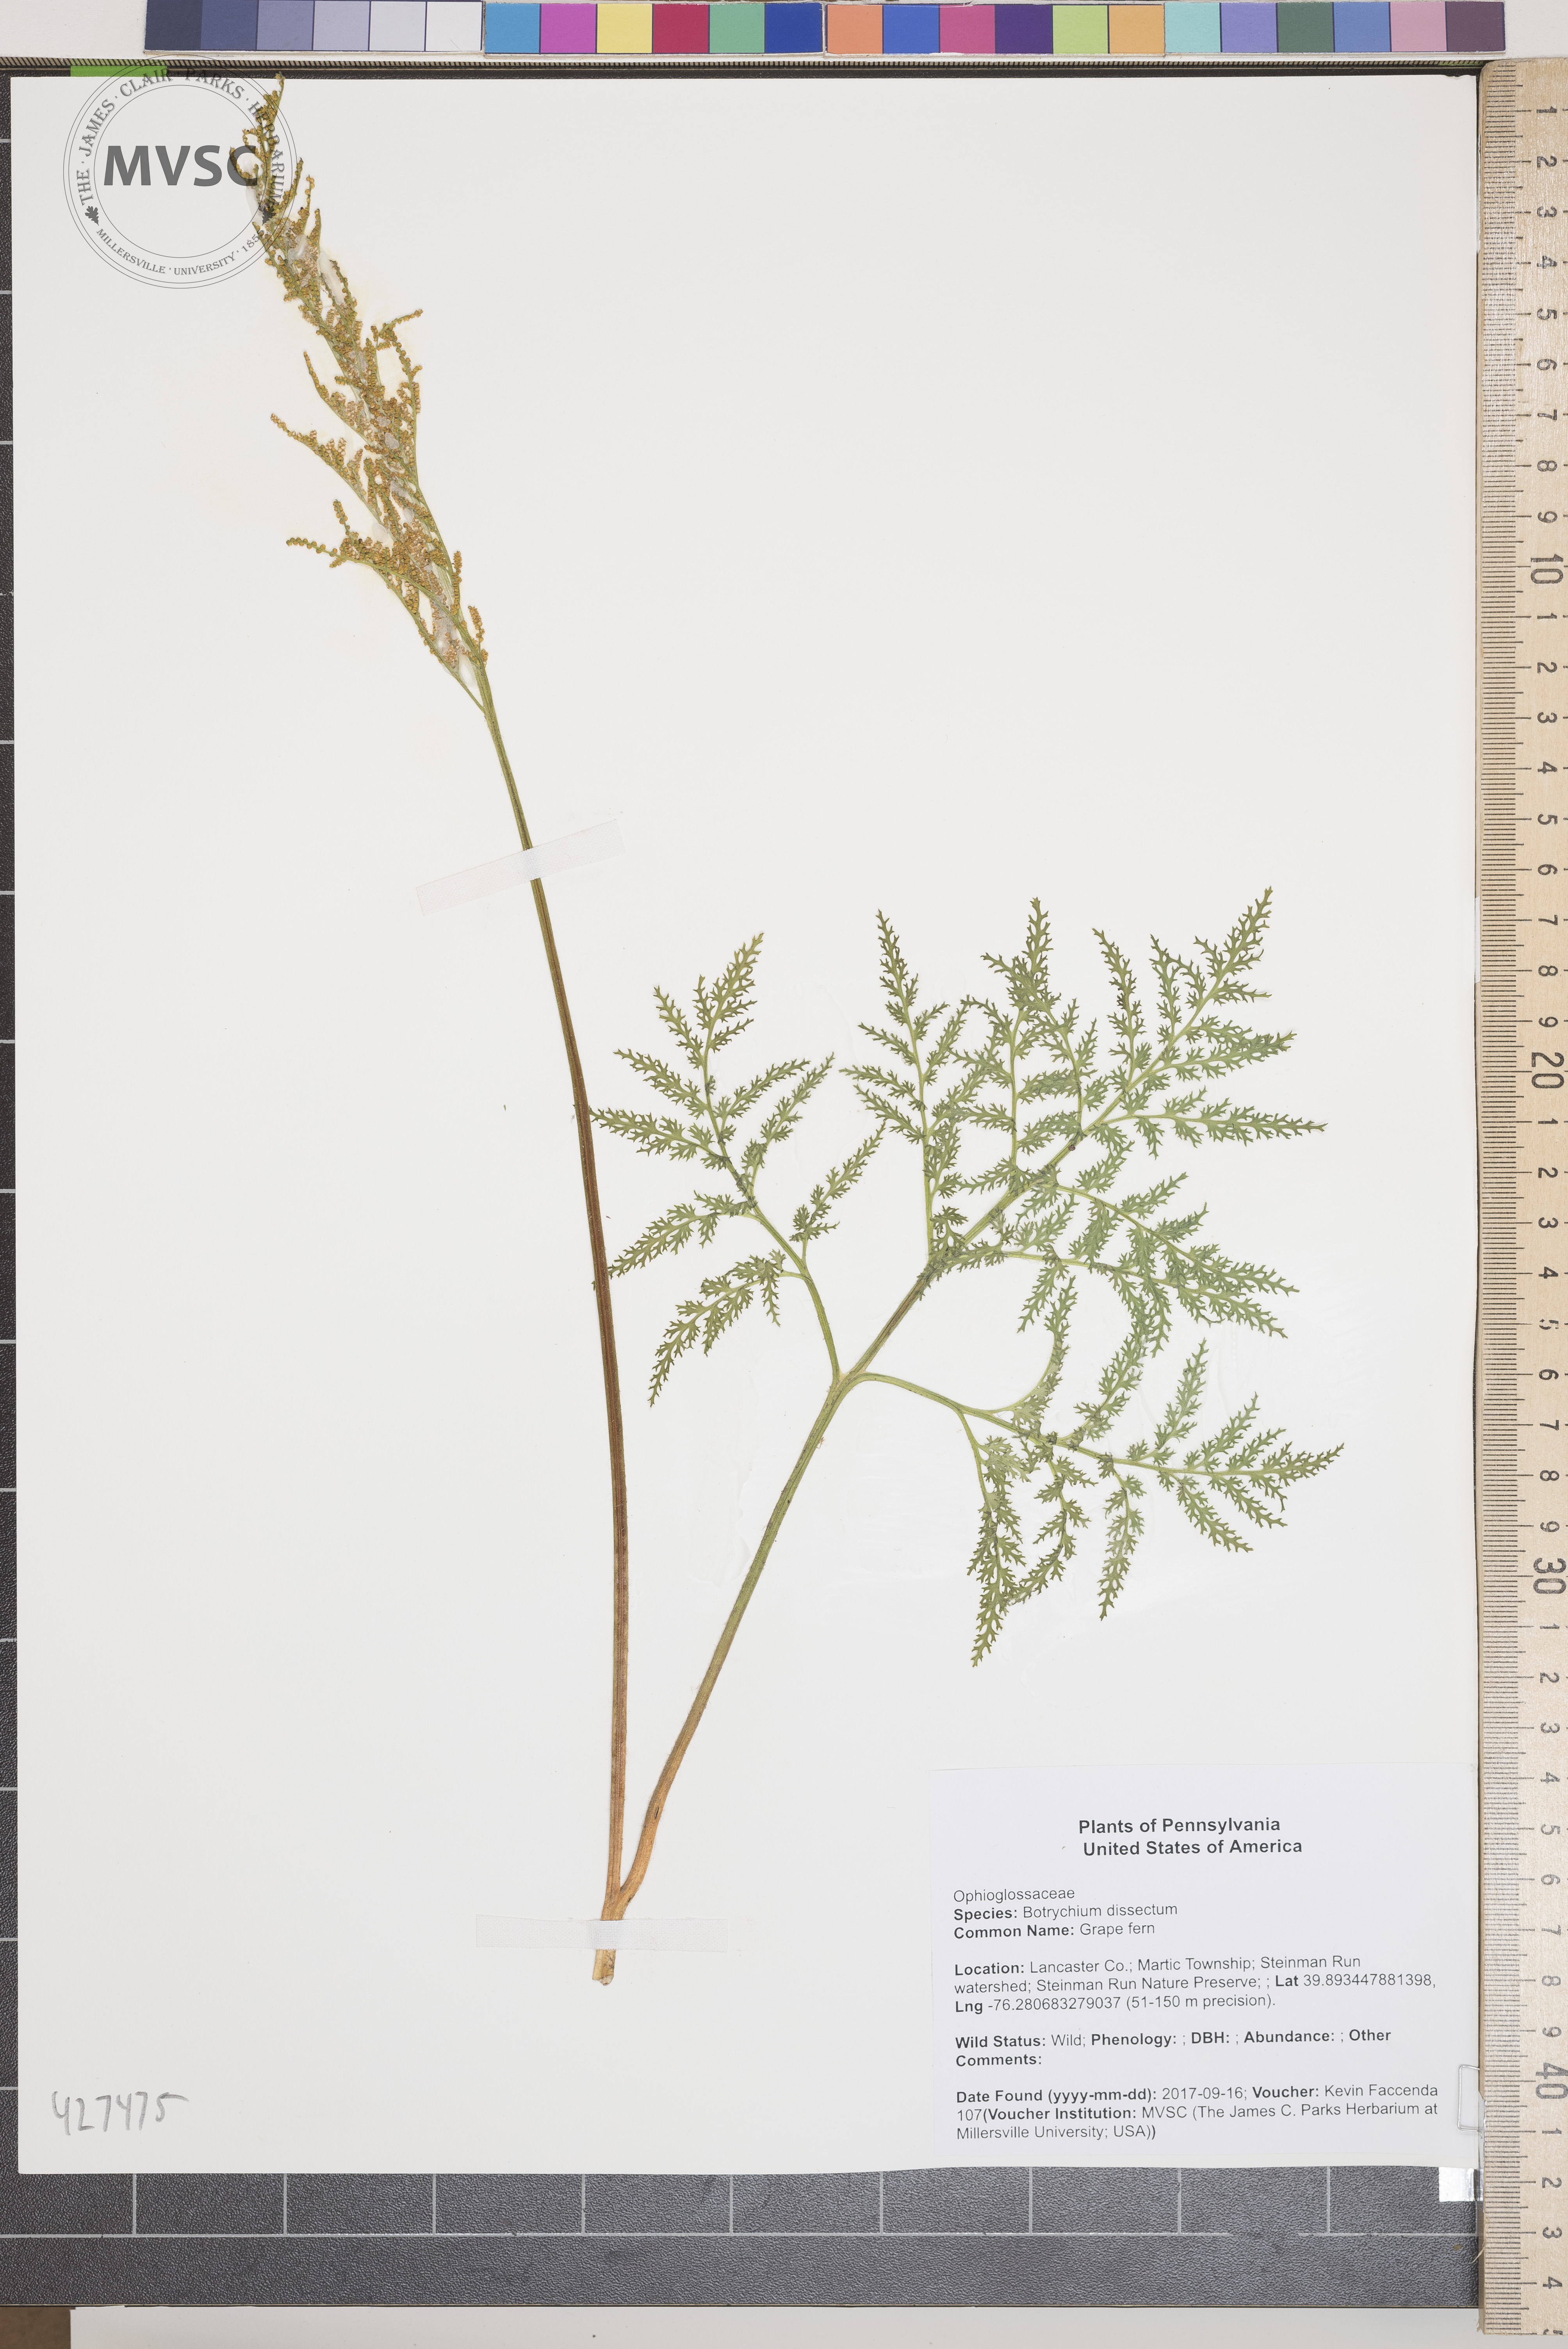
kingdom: Plantae
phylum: Tracheophyta
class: Polypodiopsida
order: Ophioglossales
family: Ophioglossaceae
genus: Sceptridium
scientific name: Sceptridium dissectum
